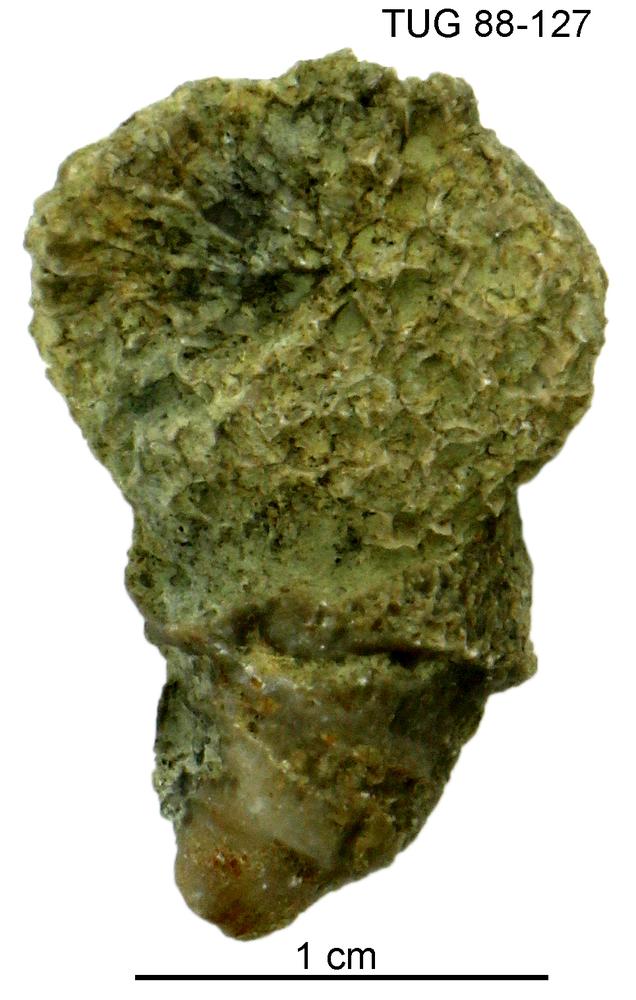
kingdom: Animalia
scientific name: Animalia
